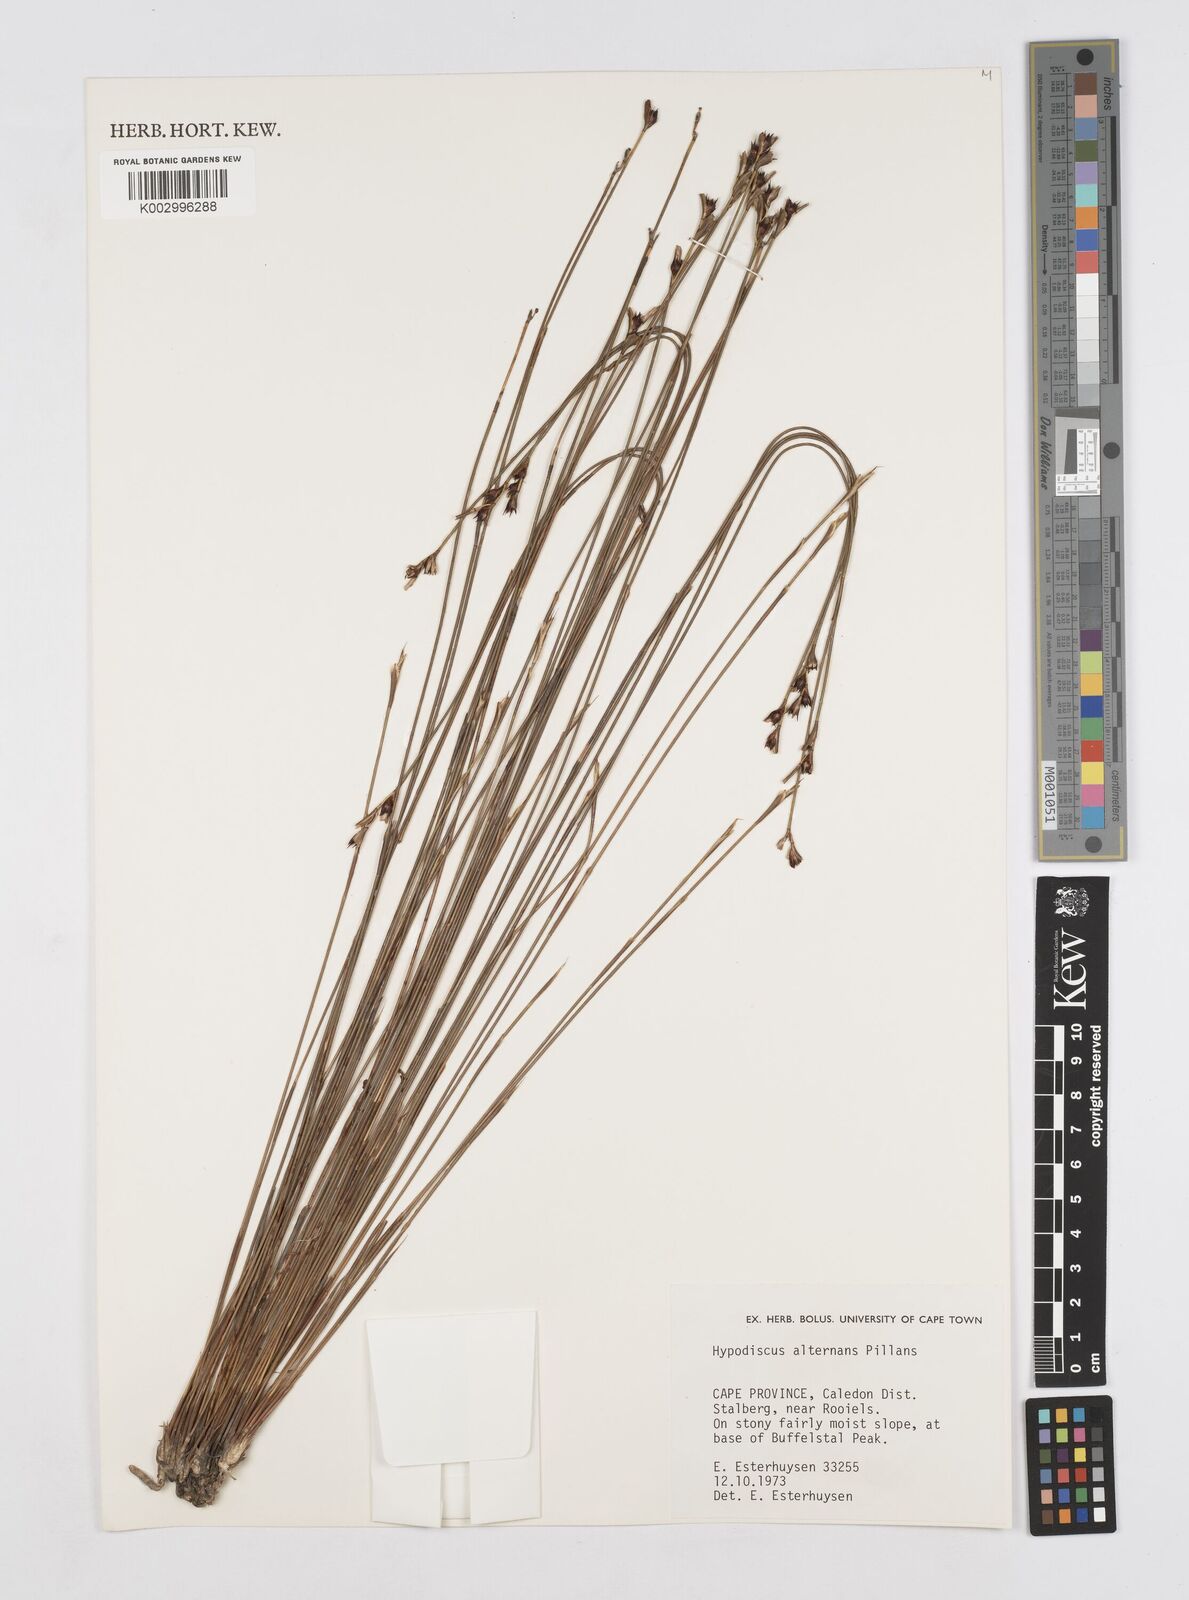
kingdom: Plantae
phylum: Tracheophyta
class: Liliopsida
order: Poales
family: Restionaceae
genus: Hypodiscus
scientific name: Hypodiscus alternans
